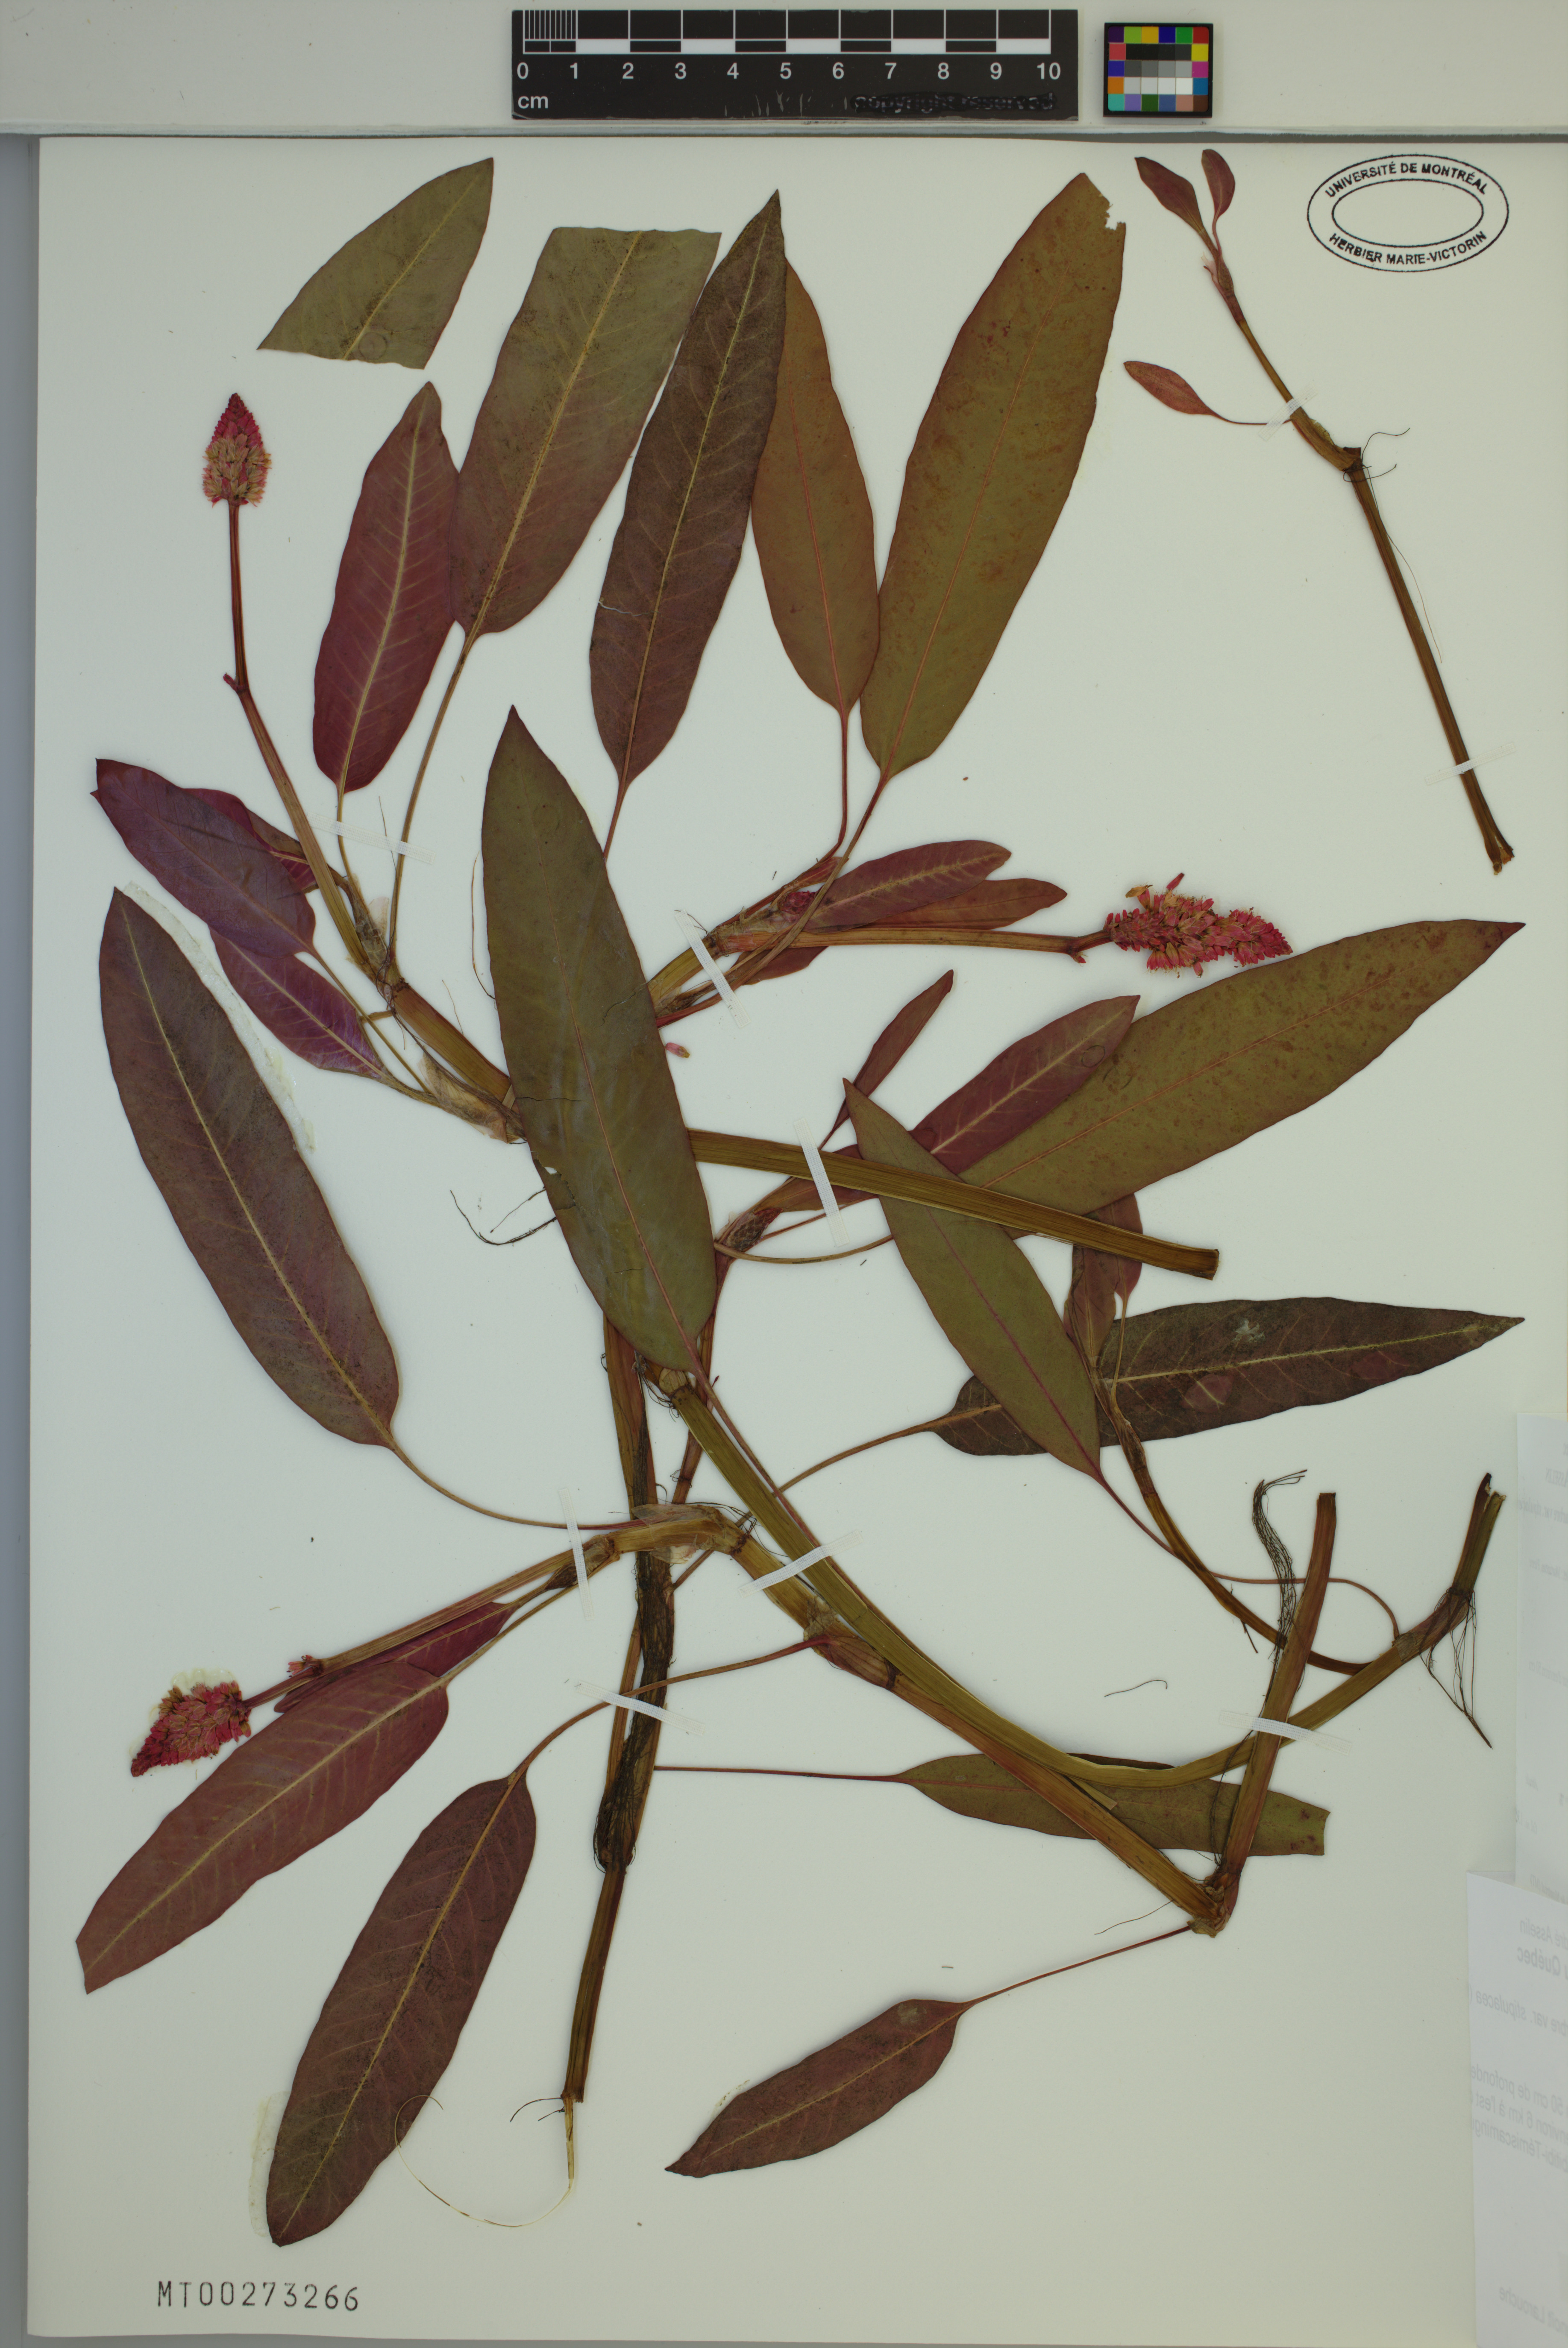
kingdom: Plantae
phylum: Tracheophyta
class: Magnoliopsida
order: Caryophyllales
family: Polygonaceae
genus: Persicaria
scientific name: Persicaria amphibia
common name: Amphibious bistort
